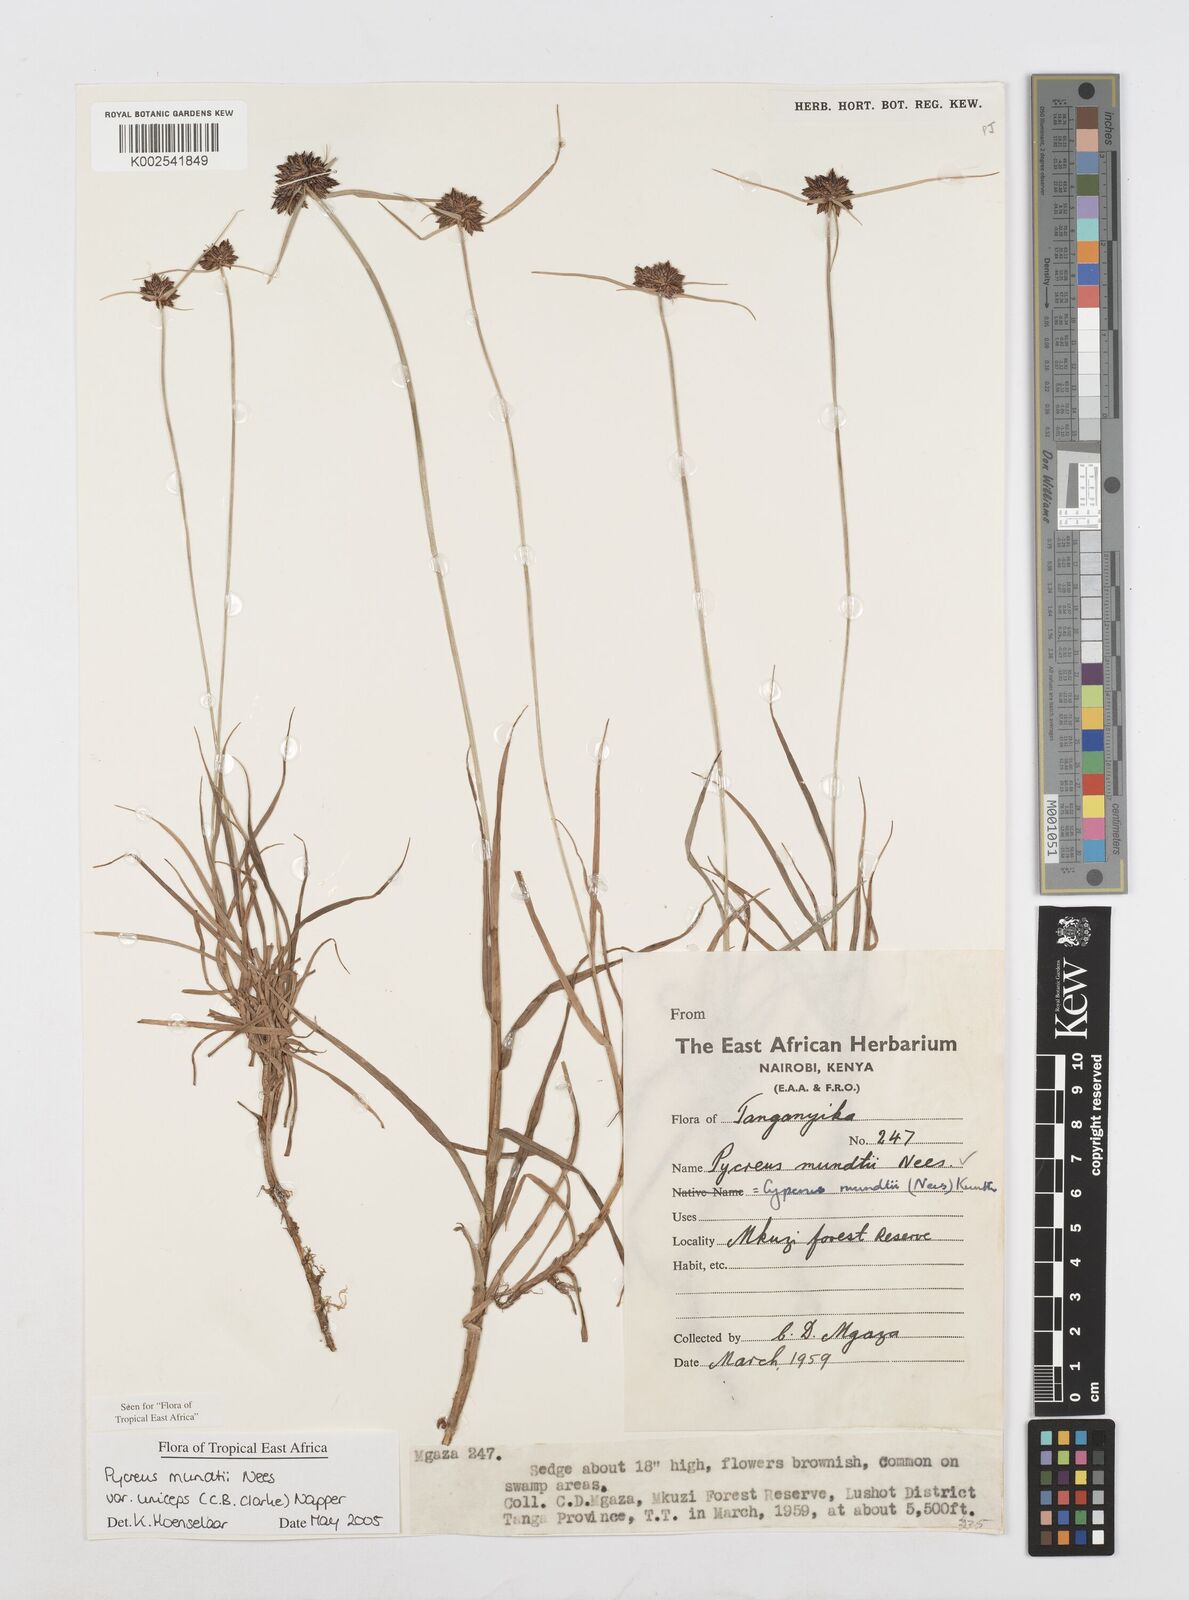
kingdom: Plantae
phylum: Tracheophyta
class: Liliopsida
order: Poales
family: Cyperaceae
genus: Cyperus
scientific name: Cyperus mundii
